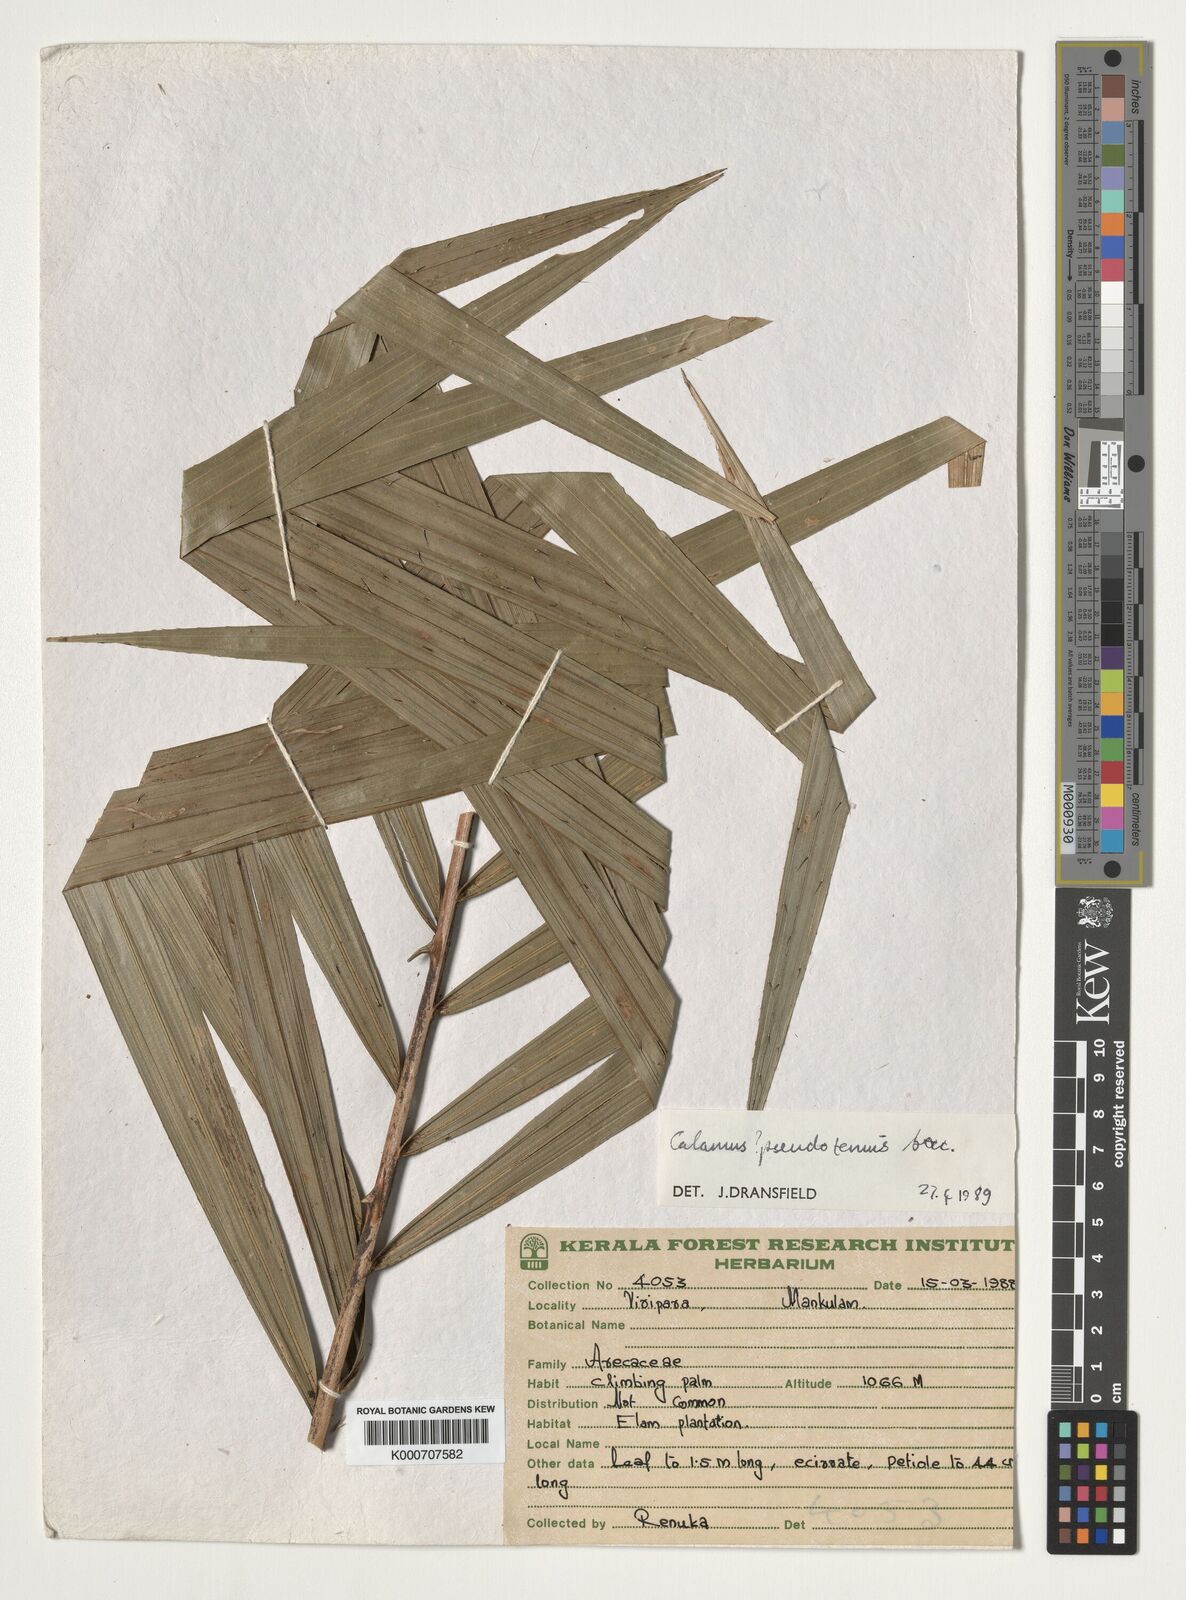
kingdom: Plantae
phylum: Tracheophyta
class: Liliopsida
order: Arecales
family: Arecaceae
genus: Calamus
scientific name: Calamus pseudotenuis
